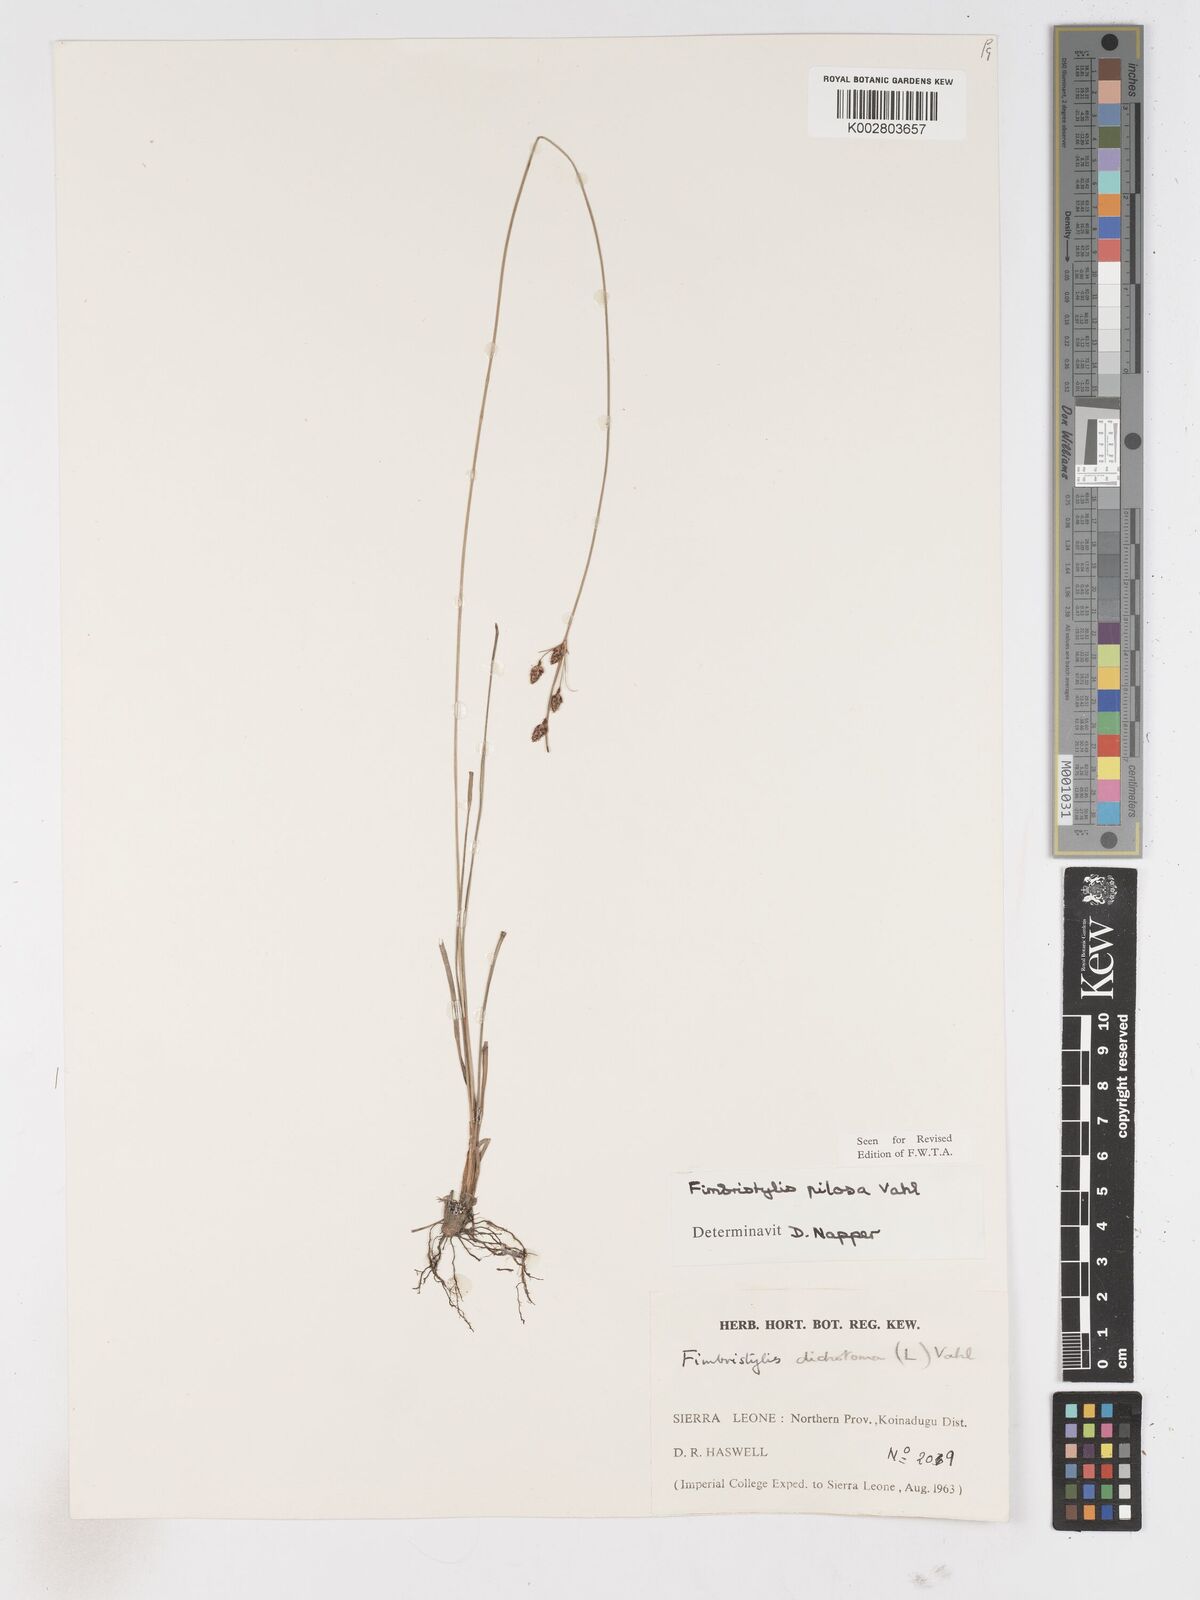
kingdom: Plantae
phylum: Tracheophyta
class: Liliopsida
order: Poales
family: Cyperaceae
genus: Fimbristylis
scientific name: Fimbristylis pilosa
